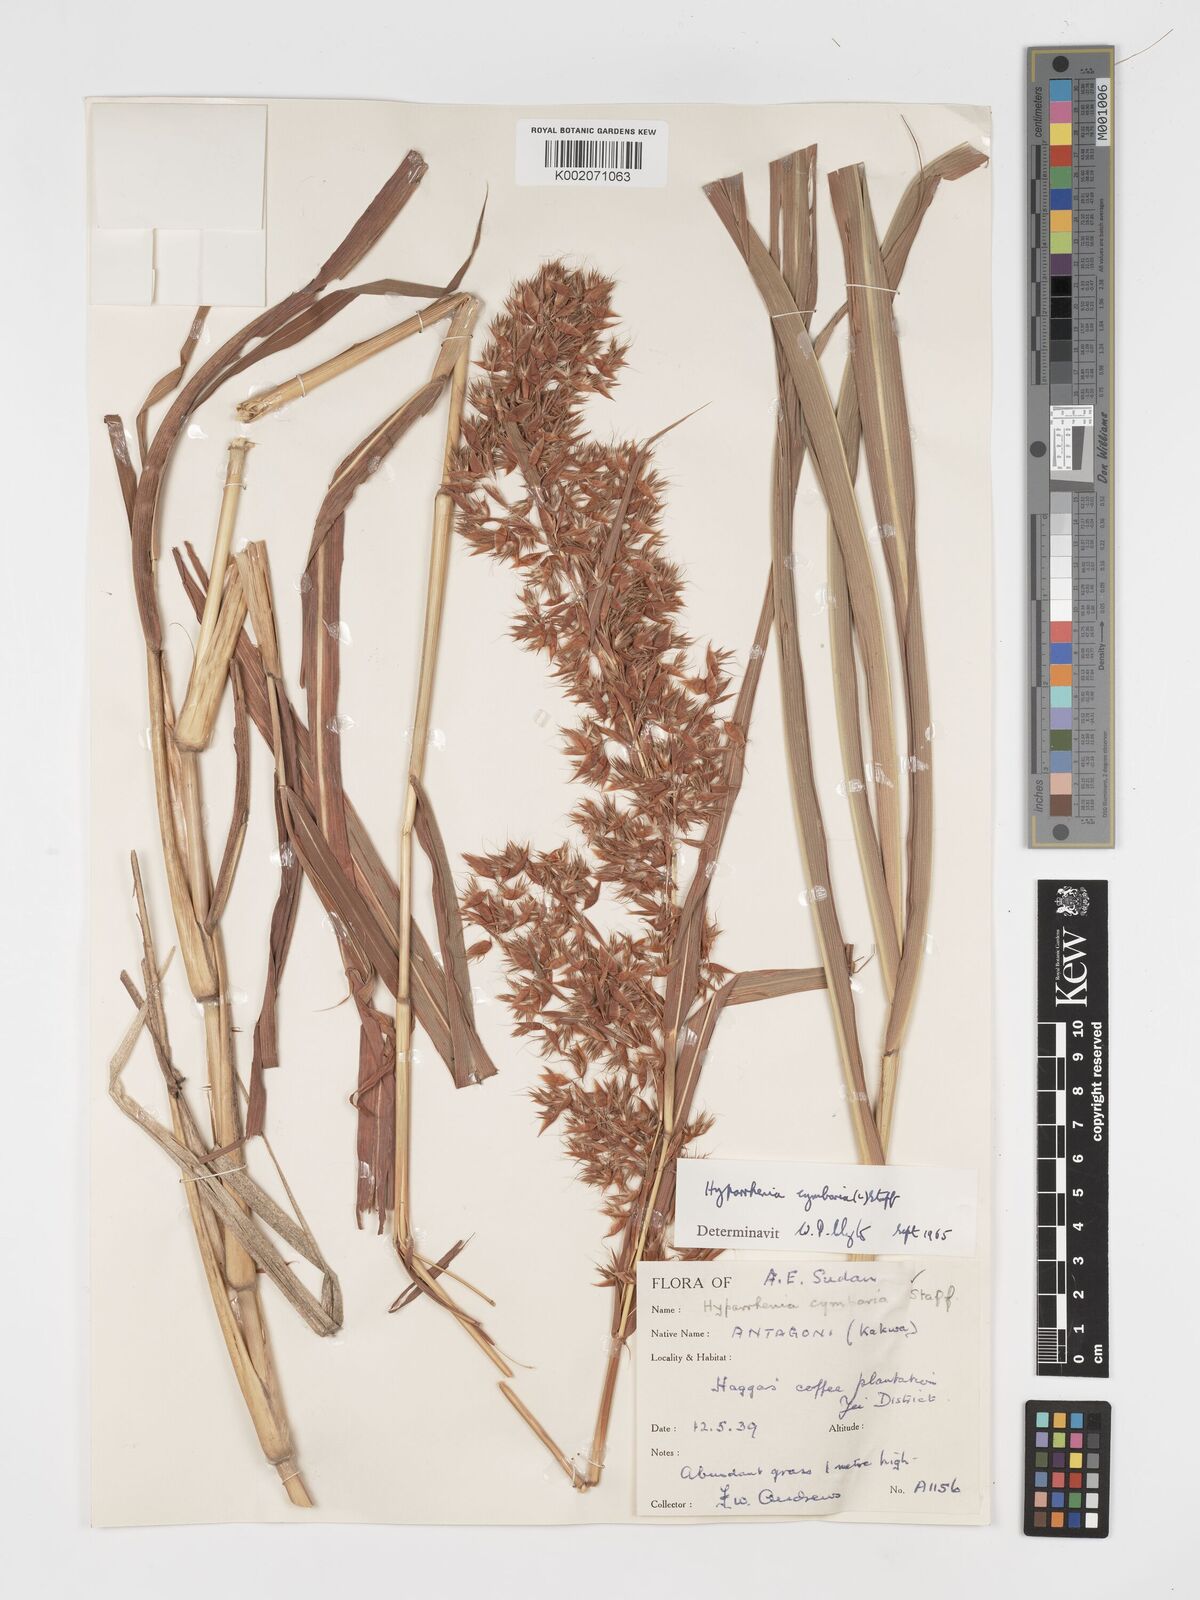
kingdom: Plantae
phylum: Tracheophyta
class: Liliopsida
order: Poales
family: Poaceae
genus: Hyparrhenia
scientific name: Hyparrhenia cymbaria
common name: Boat thatching grass
